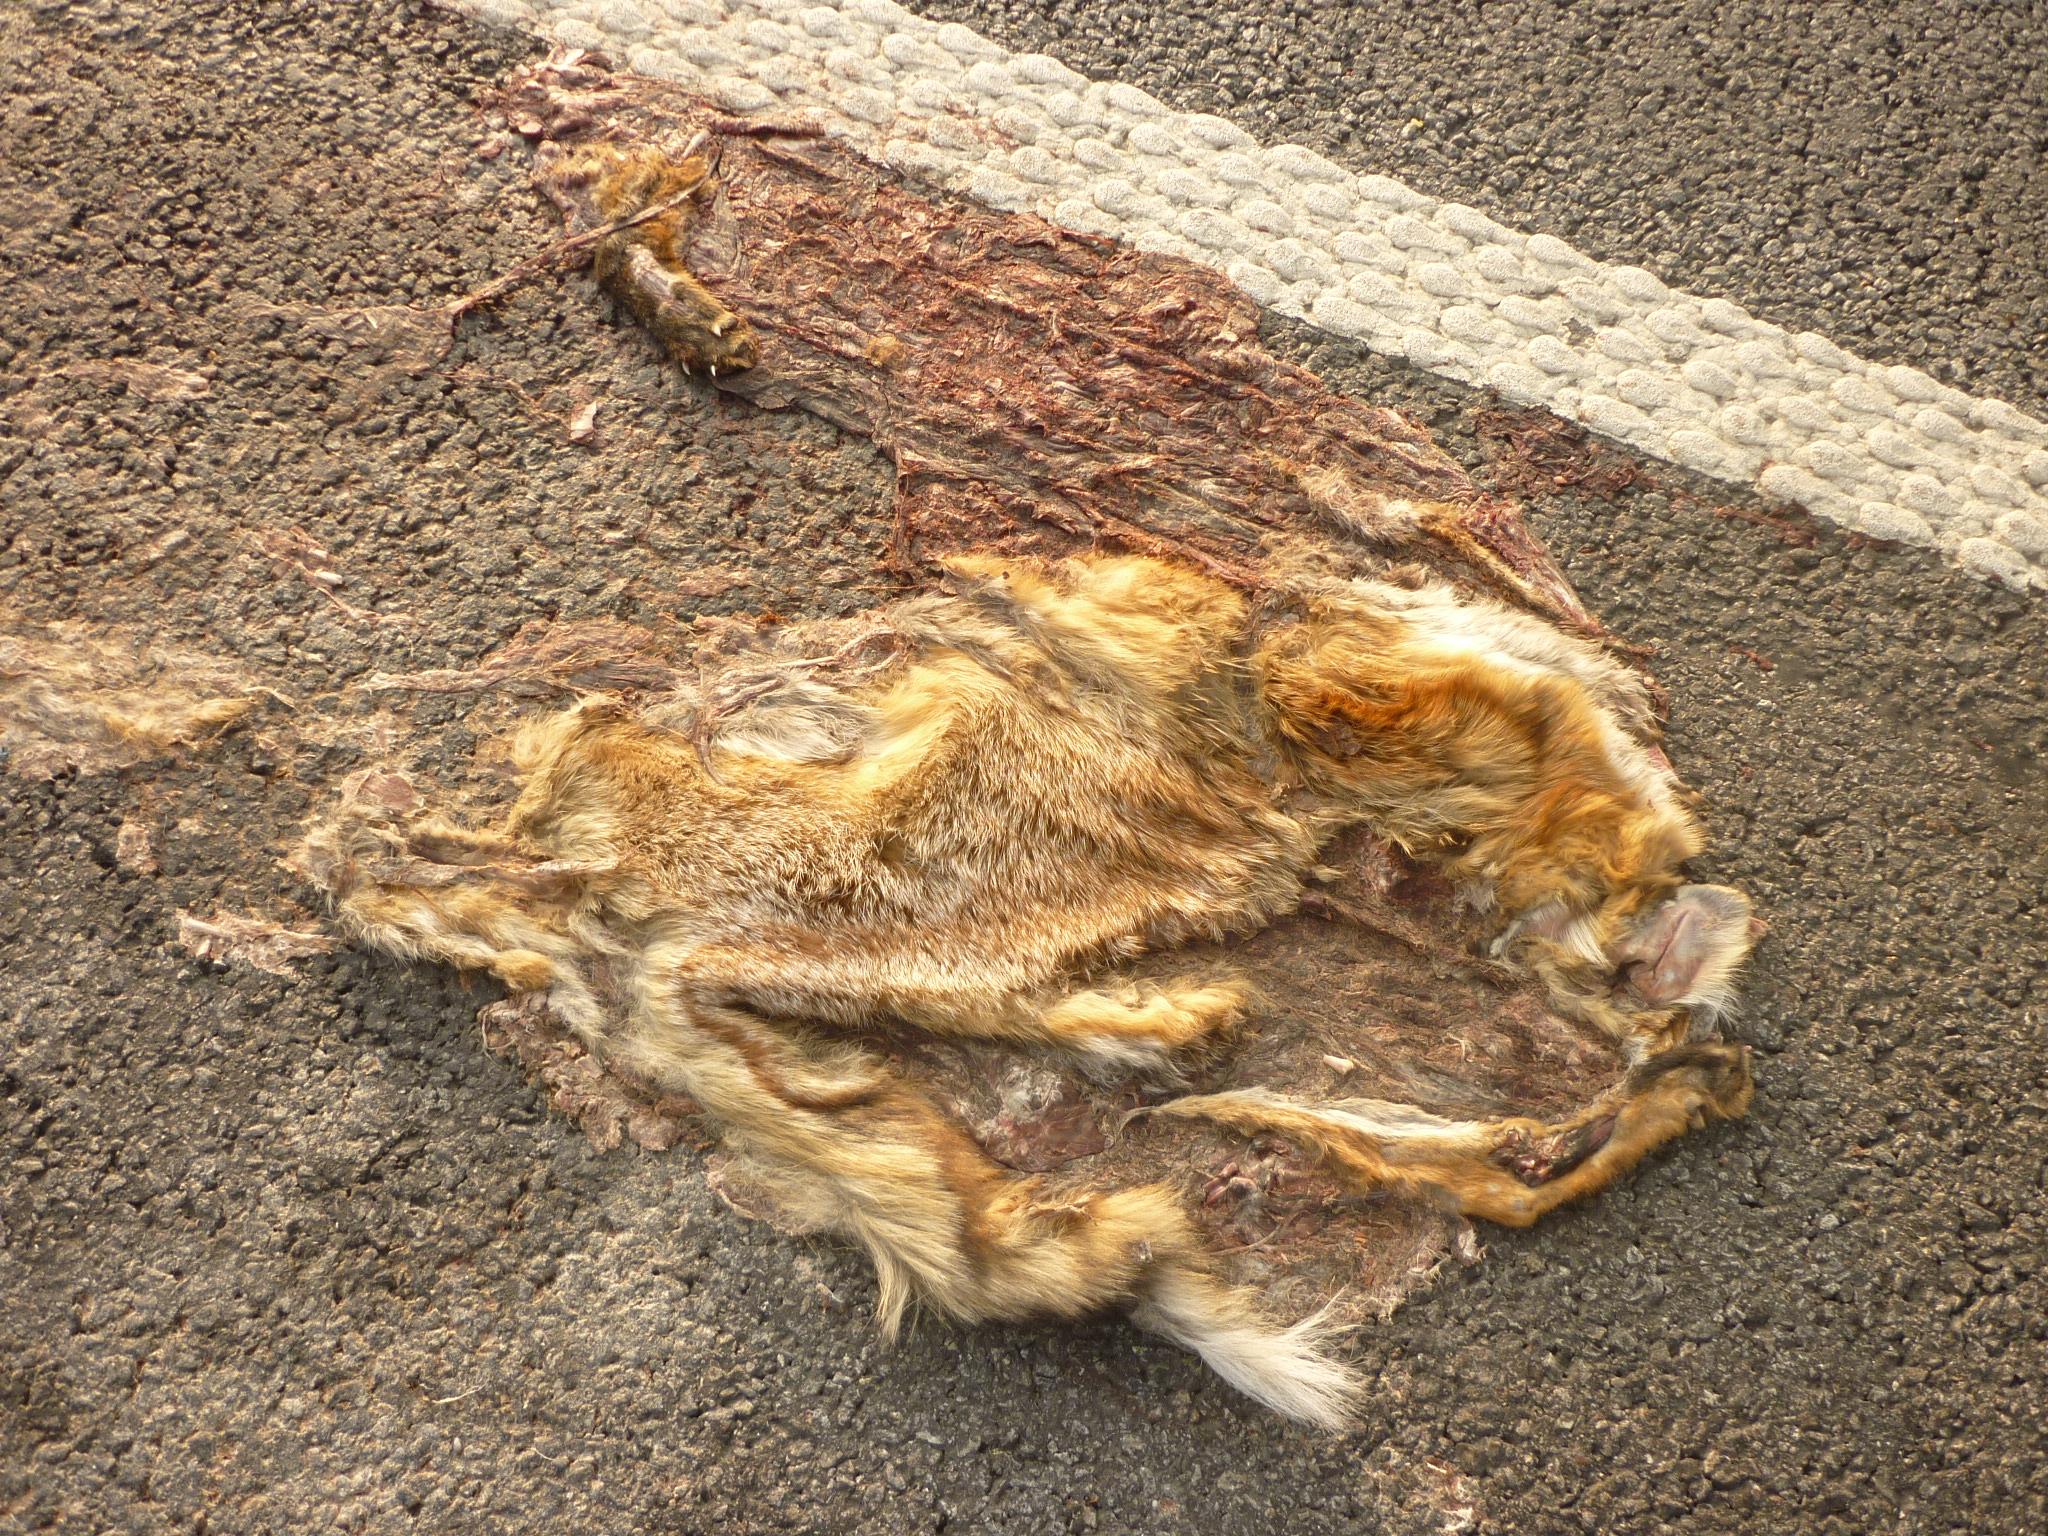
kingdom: Animalia
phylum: Chordata
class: Mammalia
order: Carnivora
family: Canidae
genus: Vulpes
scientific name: Vulpes vulpes
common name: Red fox
